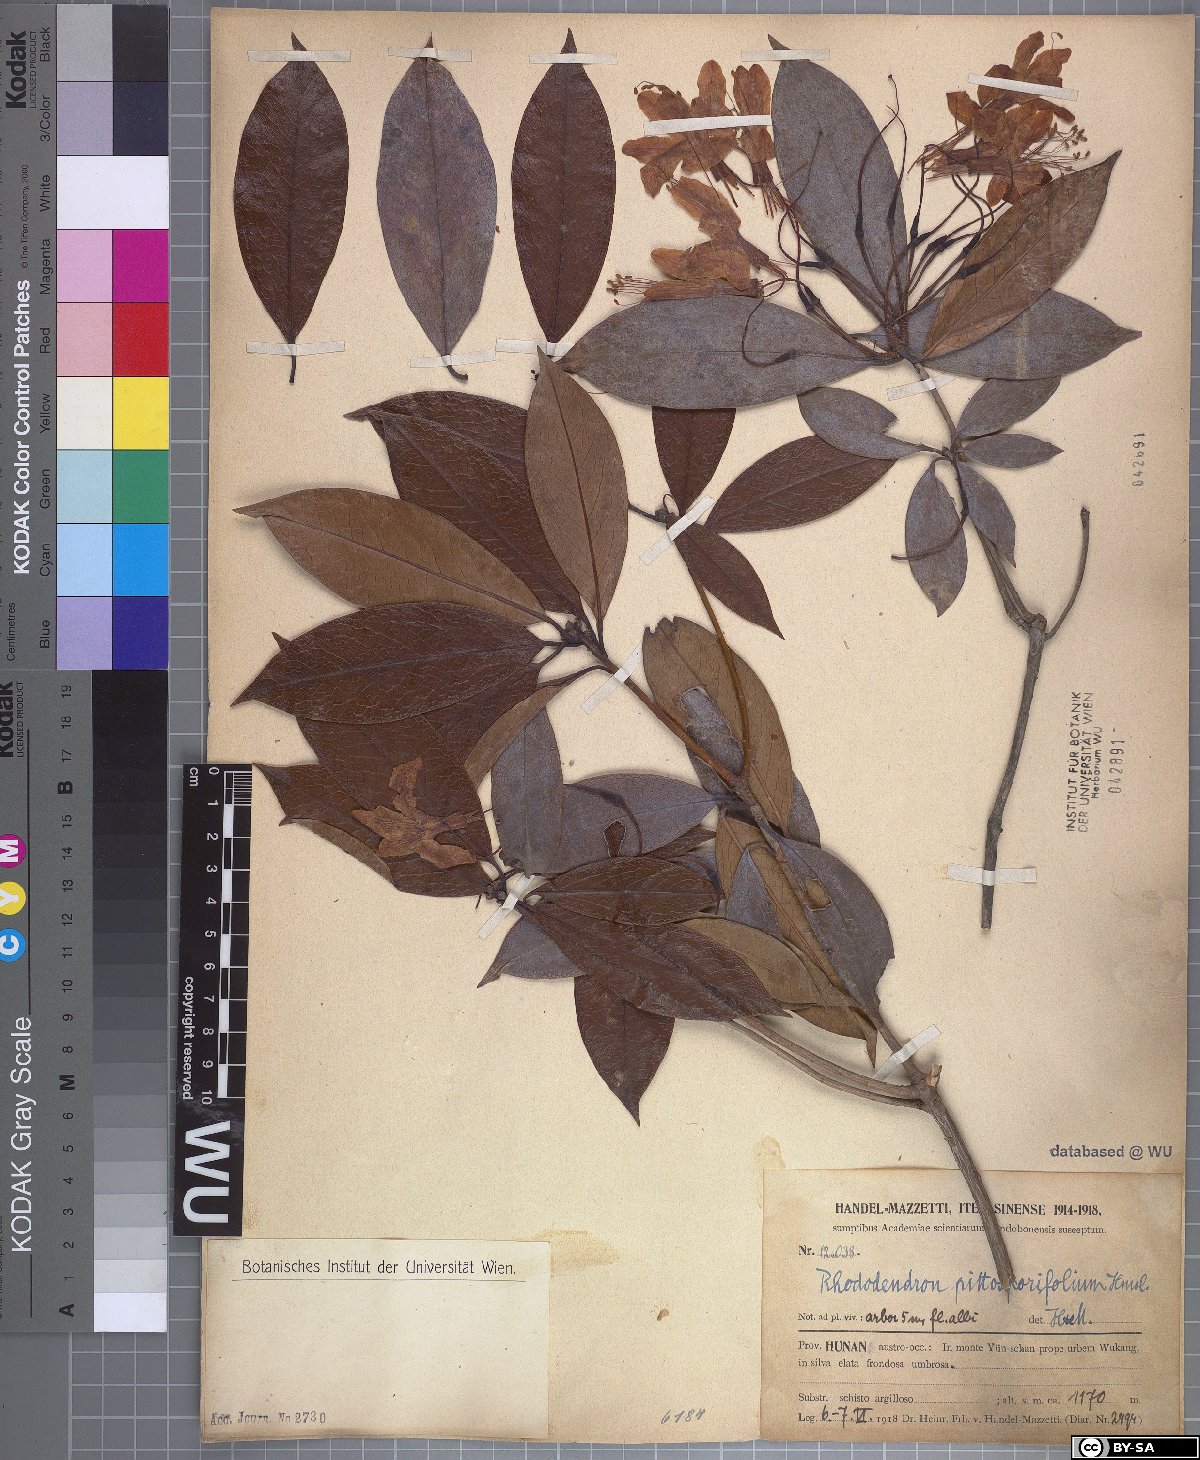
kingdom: Plantae
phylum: Tracheophyta
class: Magnoliopsida
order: Ericales
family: Ericaceae
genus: Rhododendron
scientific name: Rhododendron stamineum
